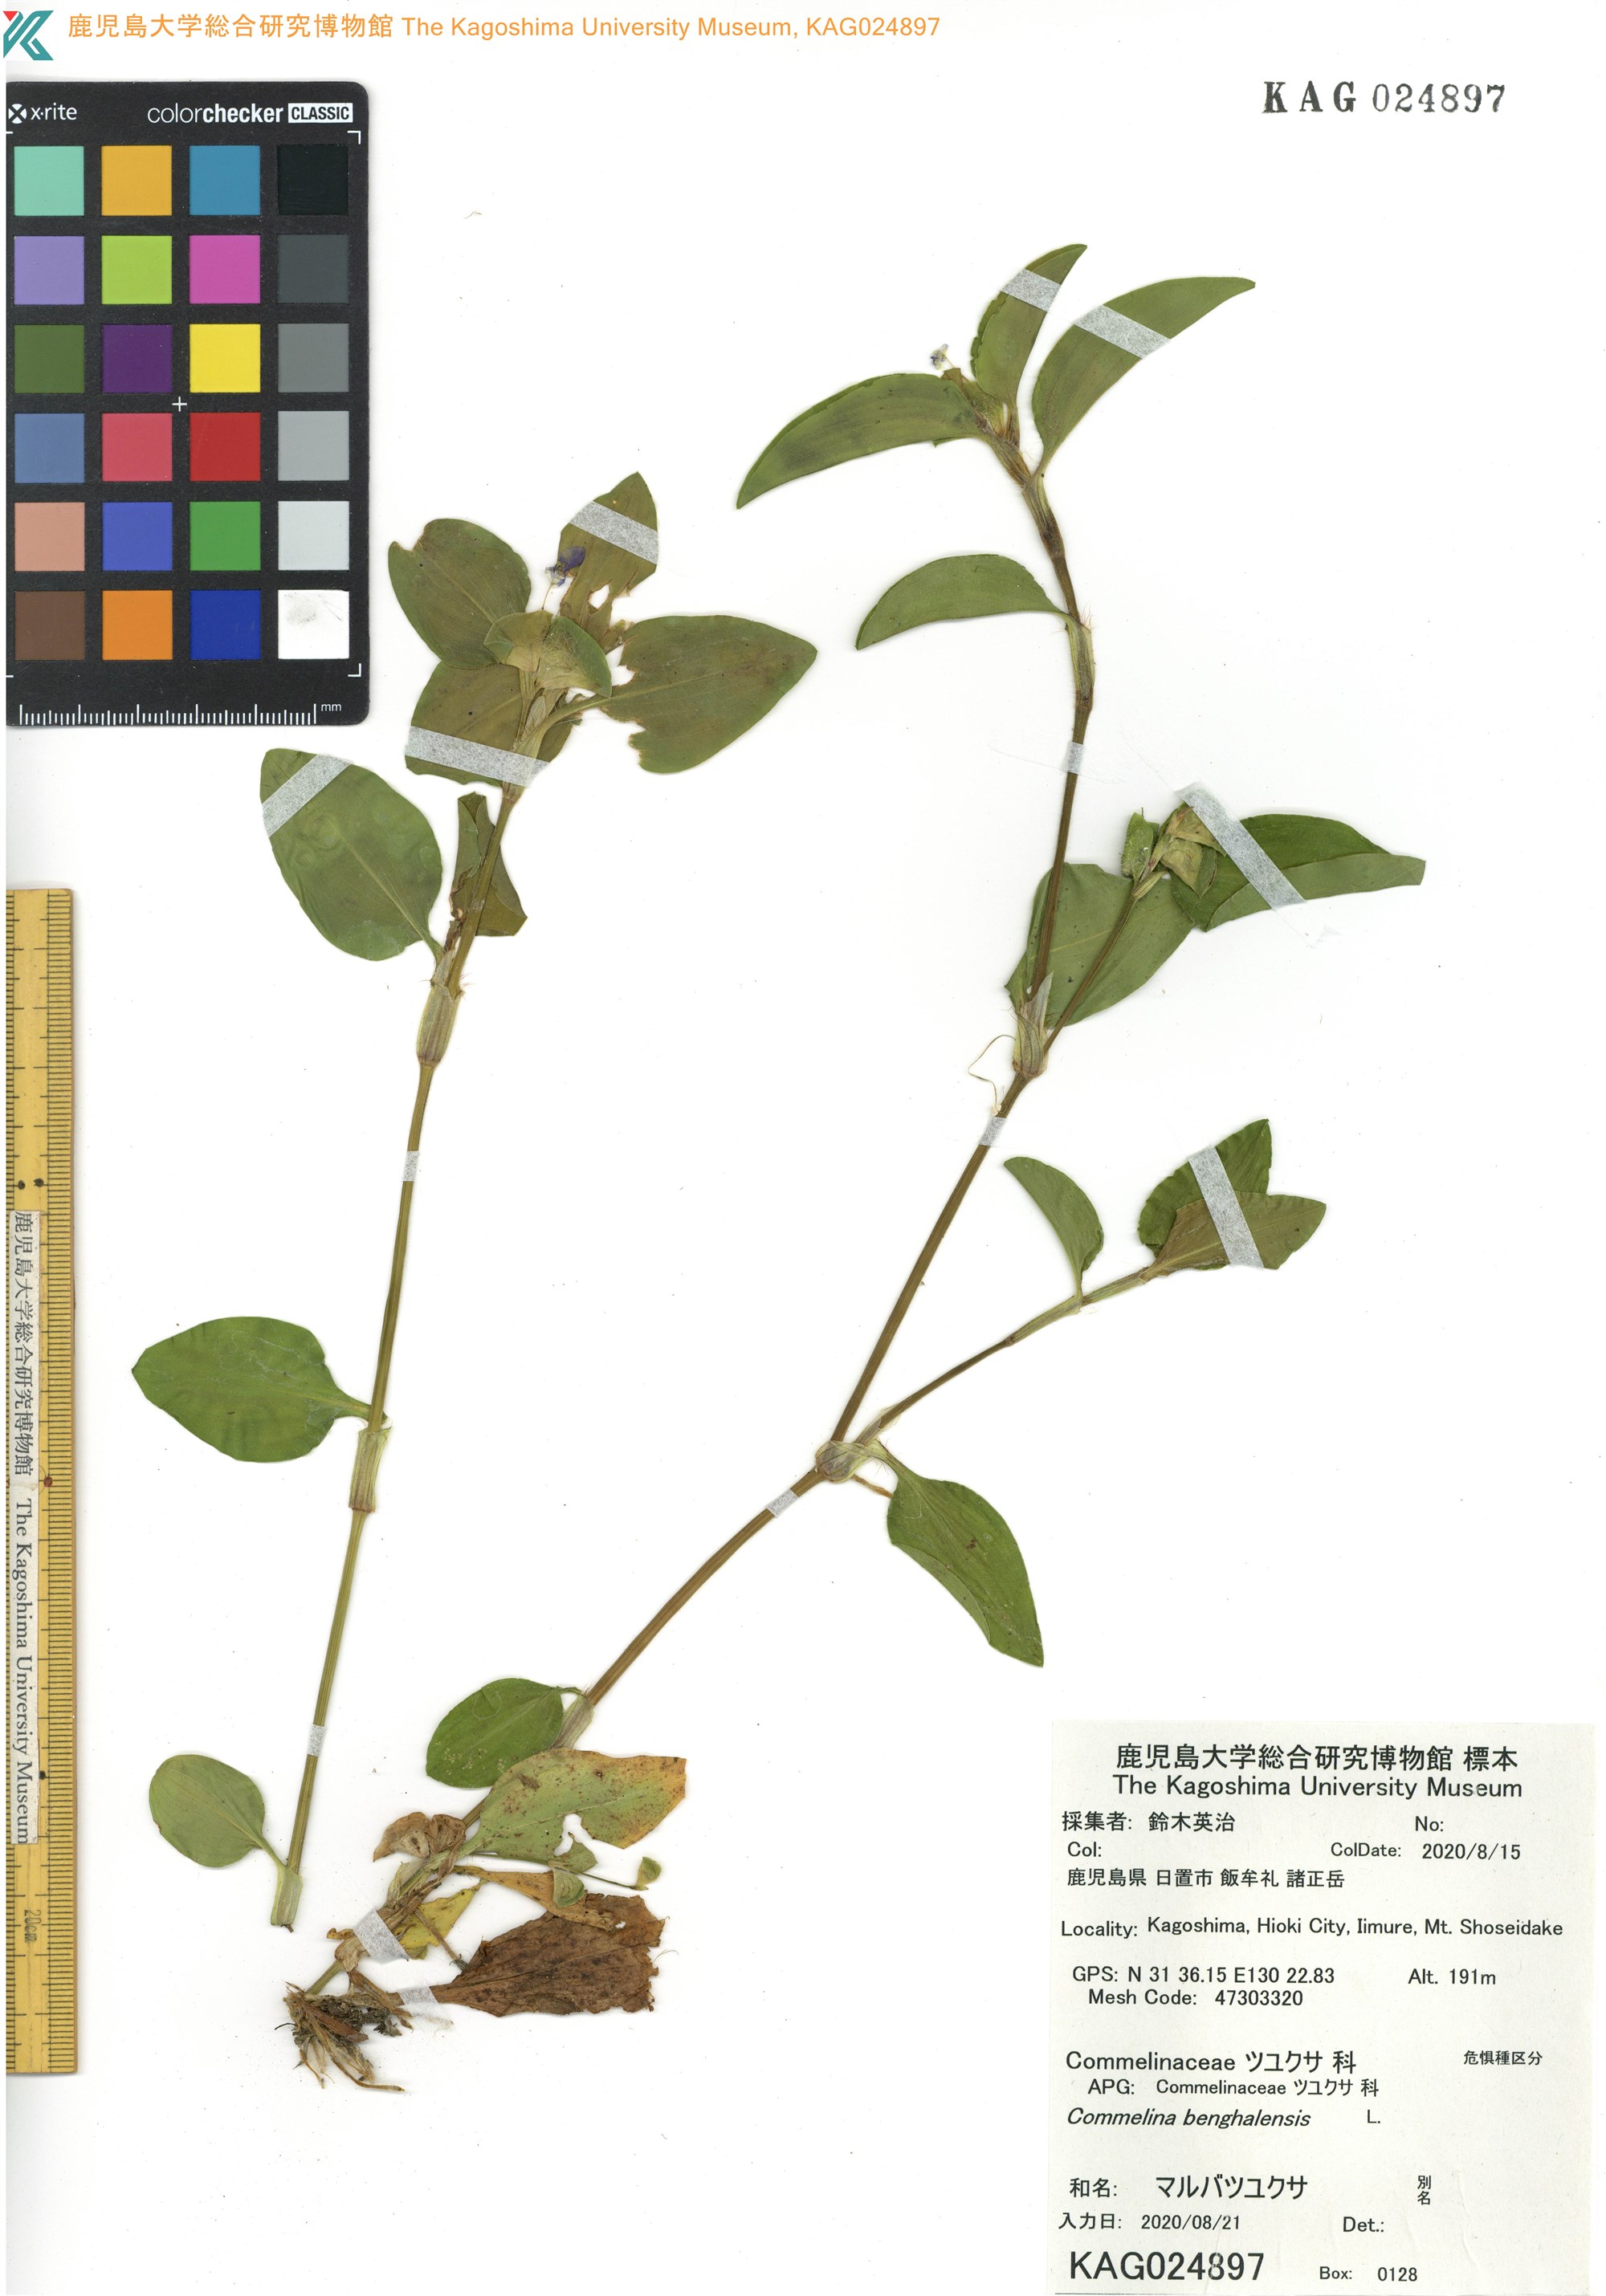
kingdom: Plantae
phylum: Tracheophyta
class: Liliopsida
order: Commelinales
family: Commelinaceae
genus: Commelina
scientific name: Commelina benghalensis
